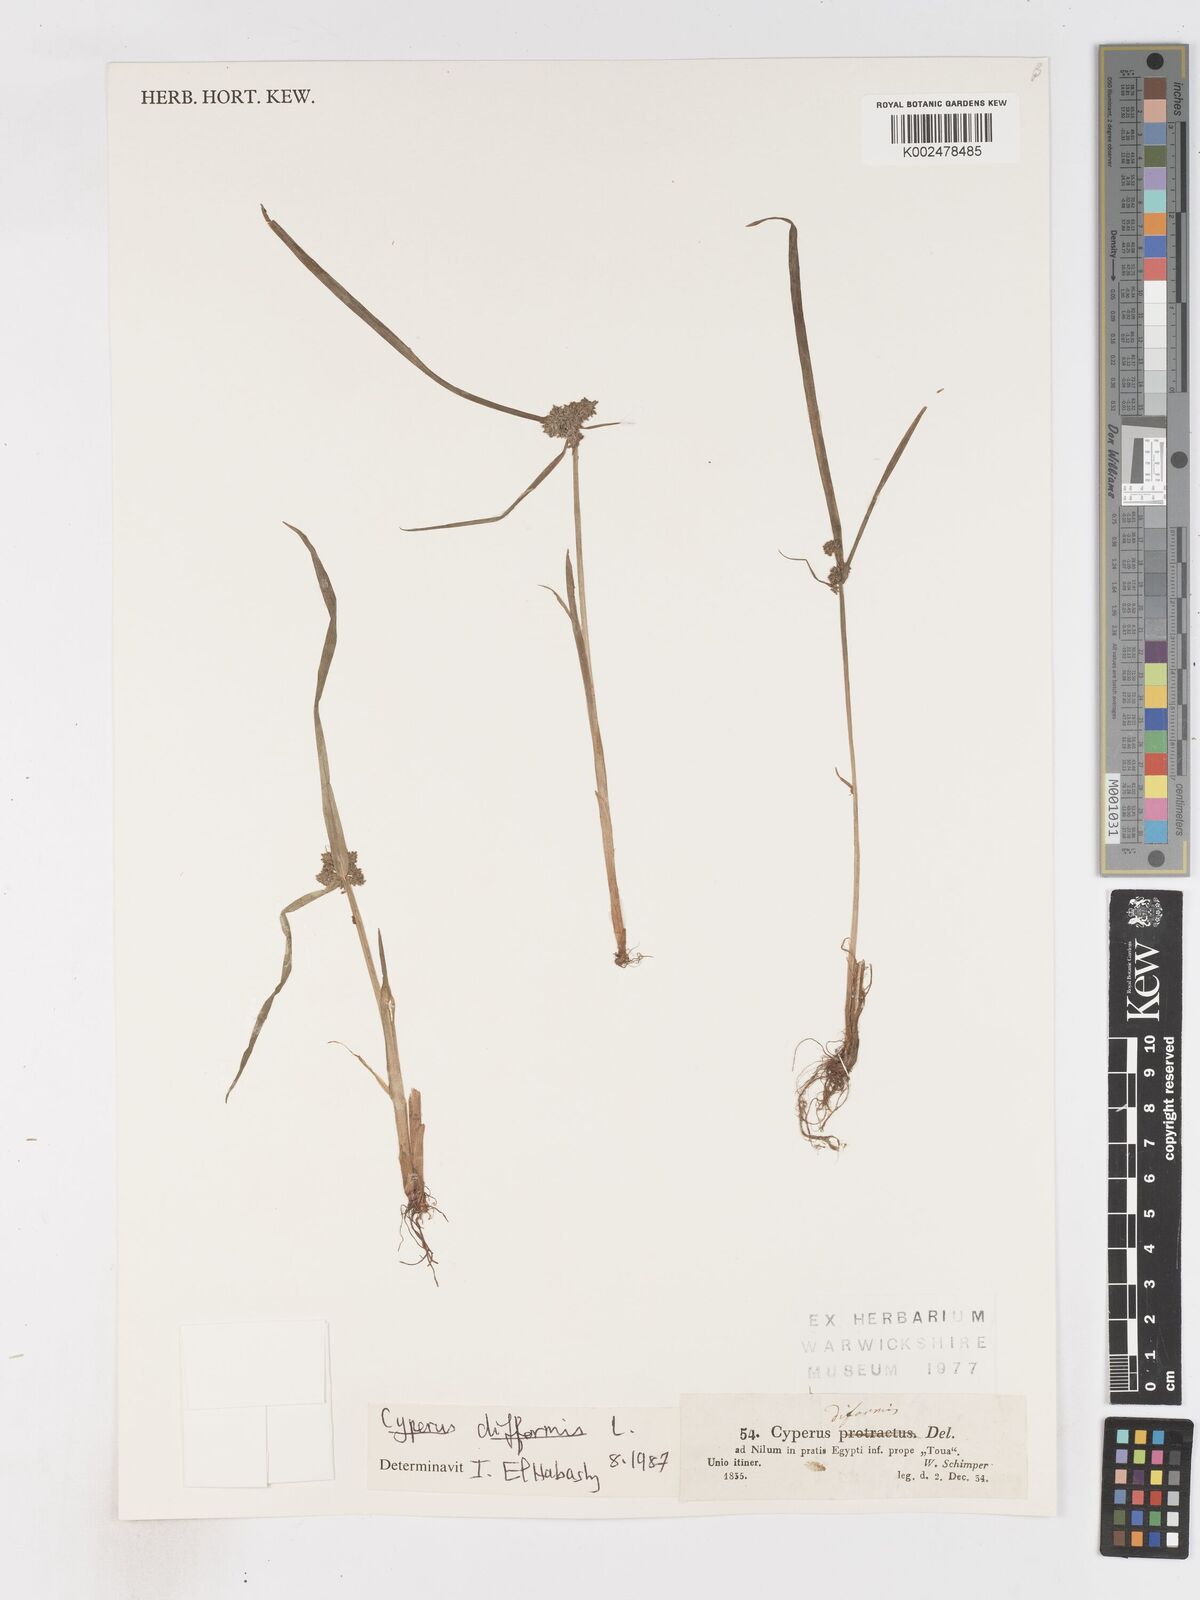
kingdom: Plantae
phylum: Tracheophyta
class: Liliopsida
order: Poales
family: Cyperaceae
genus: Cyperus
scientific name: Cyperus difformis
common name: Variable flatsedge
